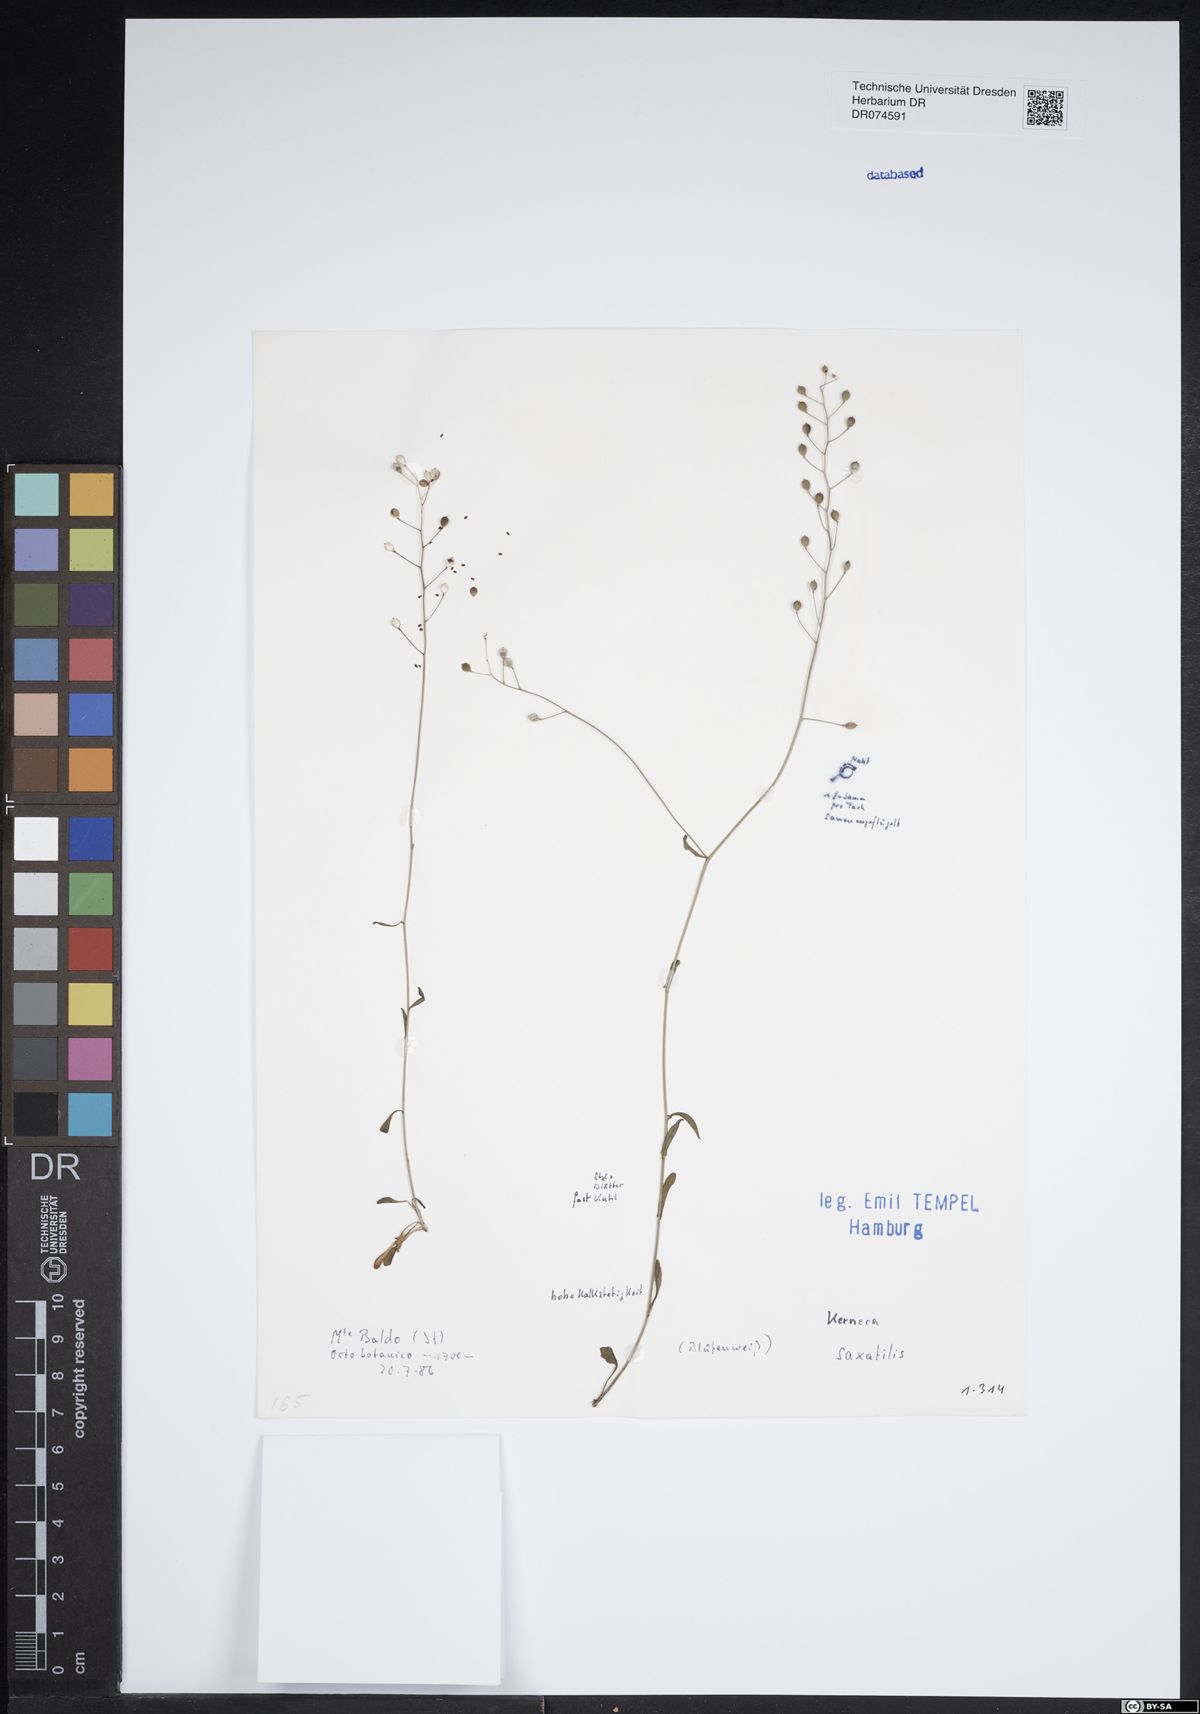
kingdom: Plantae
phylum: Tracheophyta
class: Magnoliopsida
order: Brassicales
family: Brassicaceae
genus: Kernera
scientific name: Kernera saxatilis
